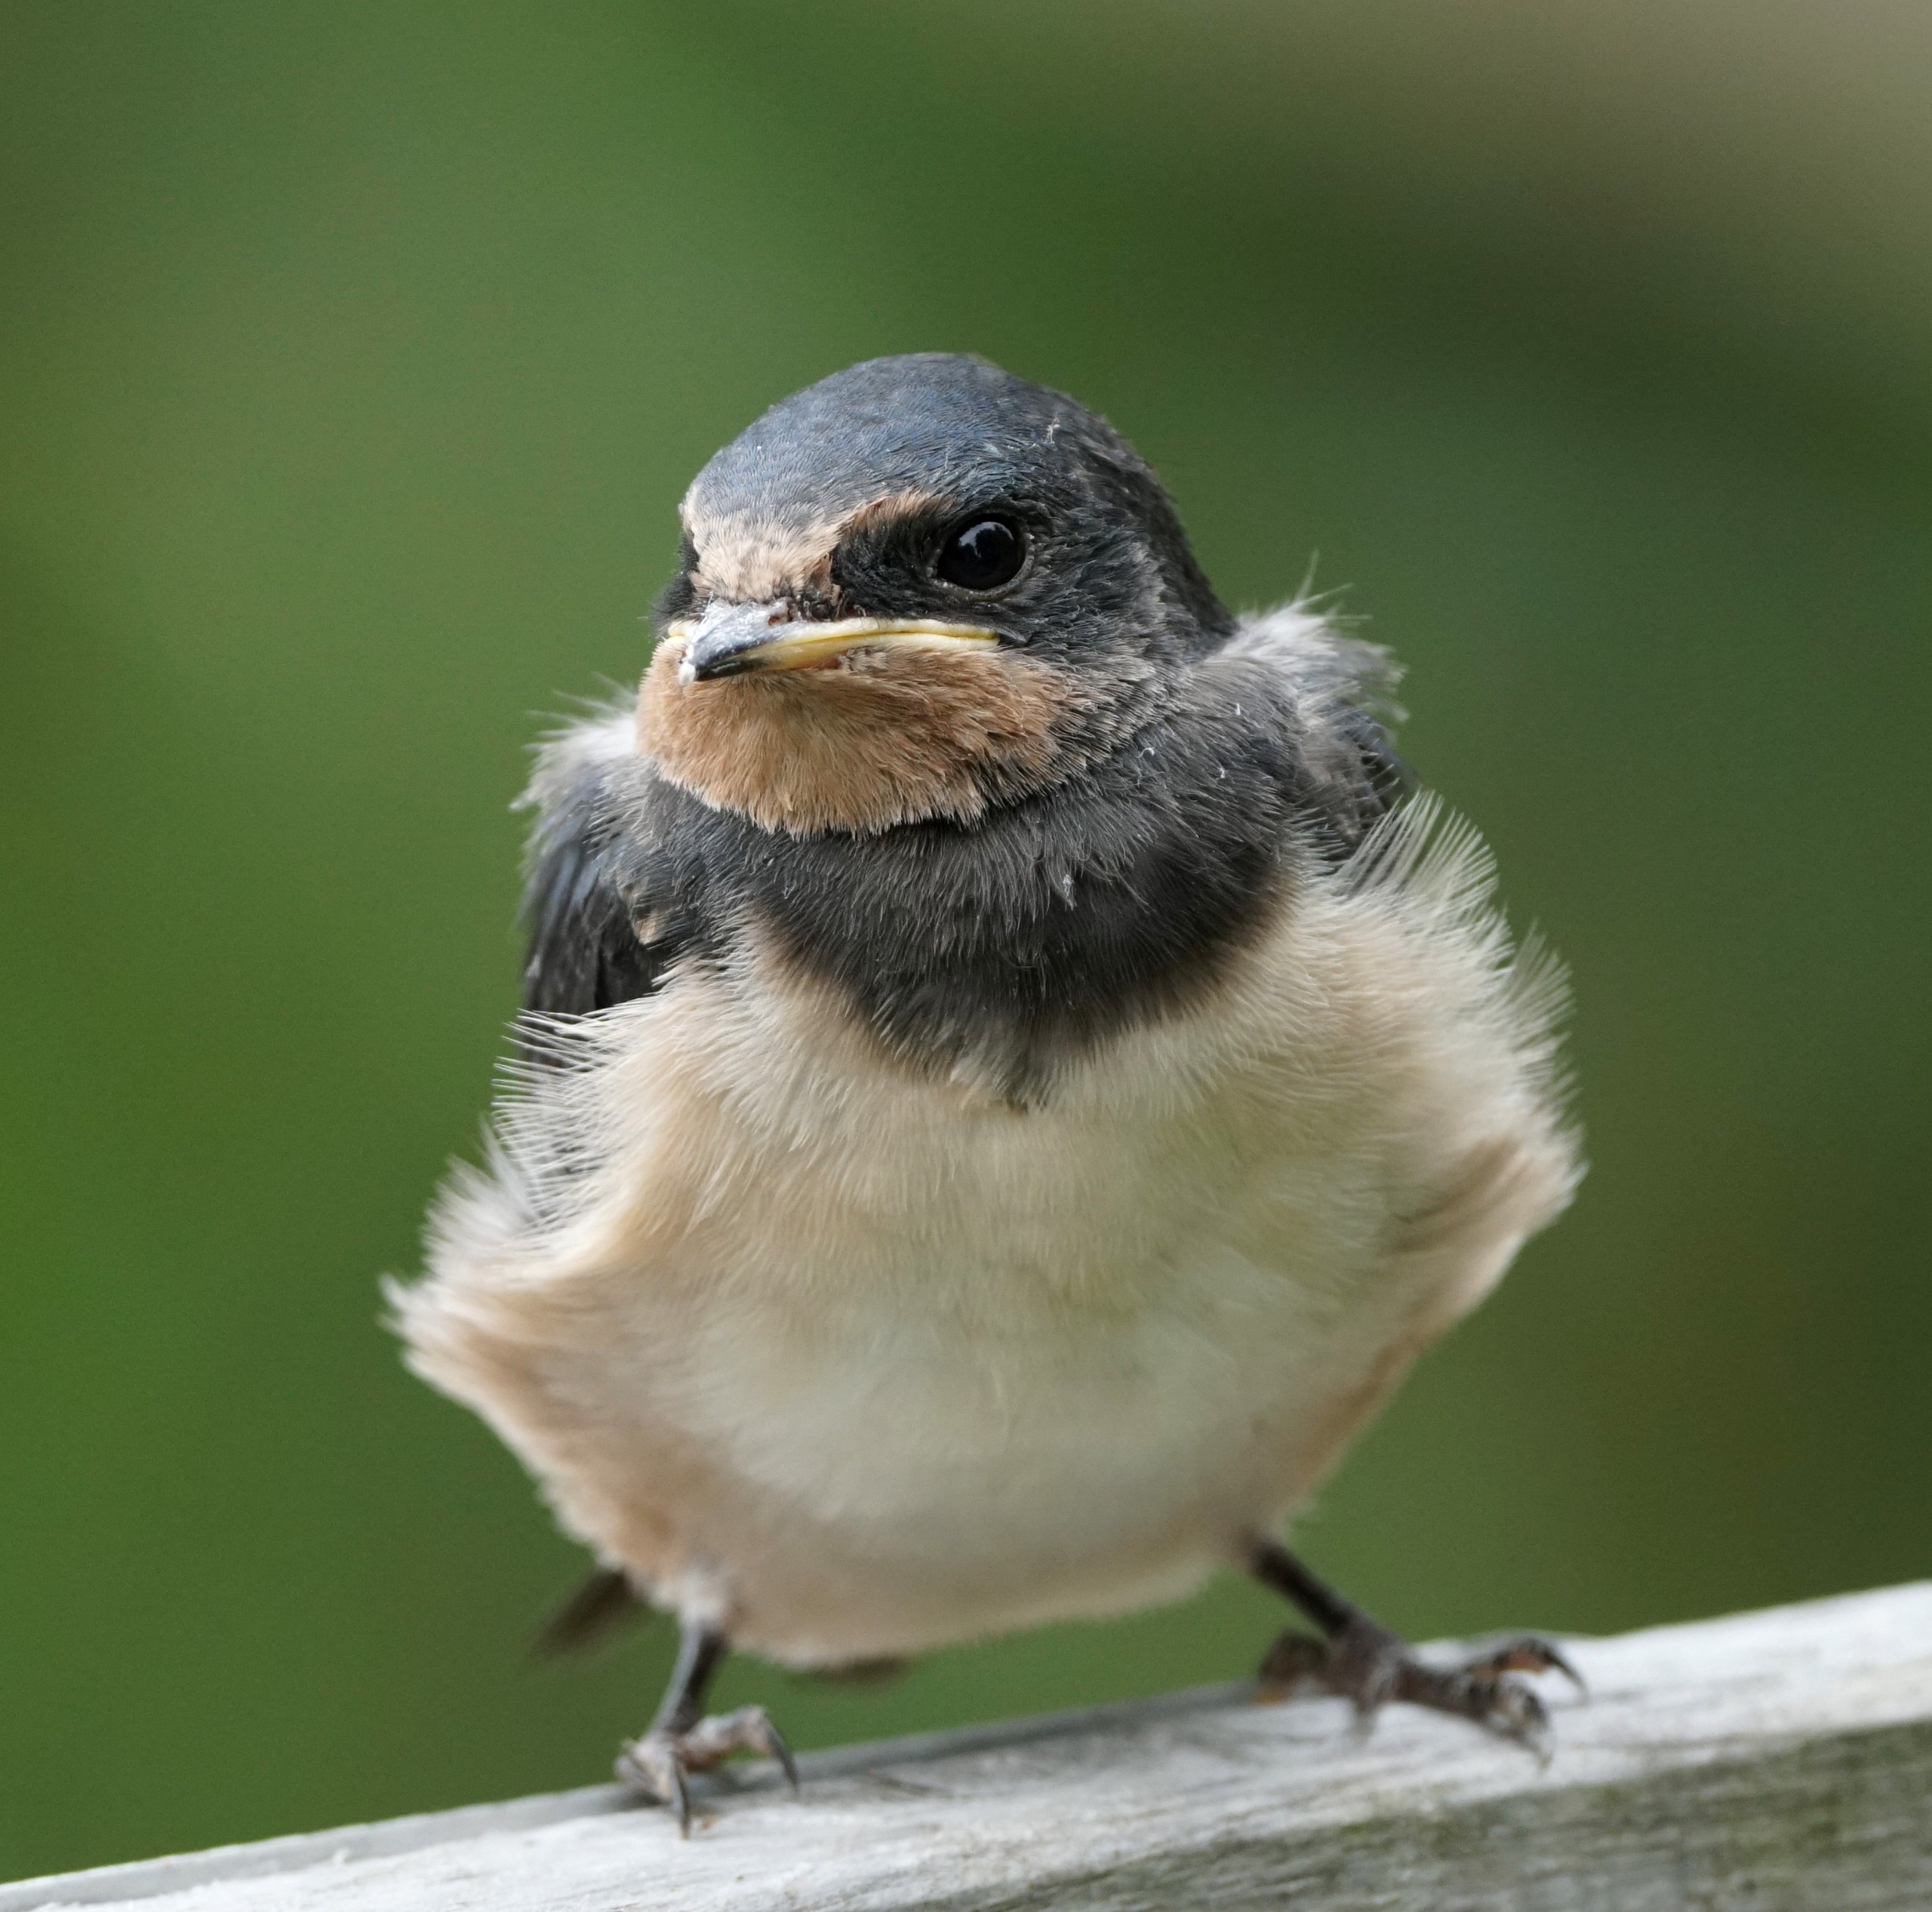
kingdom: Animalia
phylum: Chordata
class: Aves
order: Passeriformes
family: Hirundinidae
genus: Hirundo
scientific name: Hirundo rustica
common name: Landsvale
